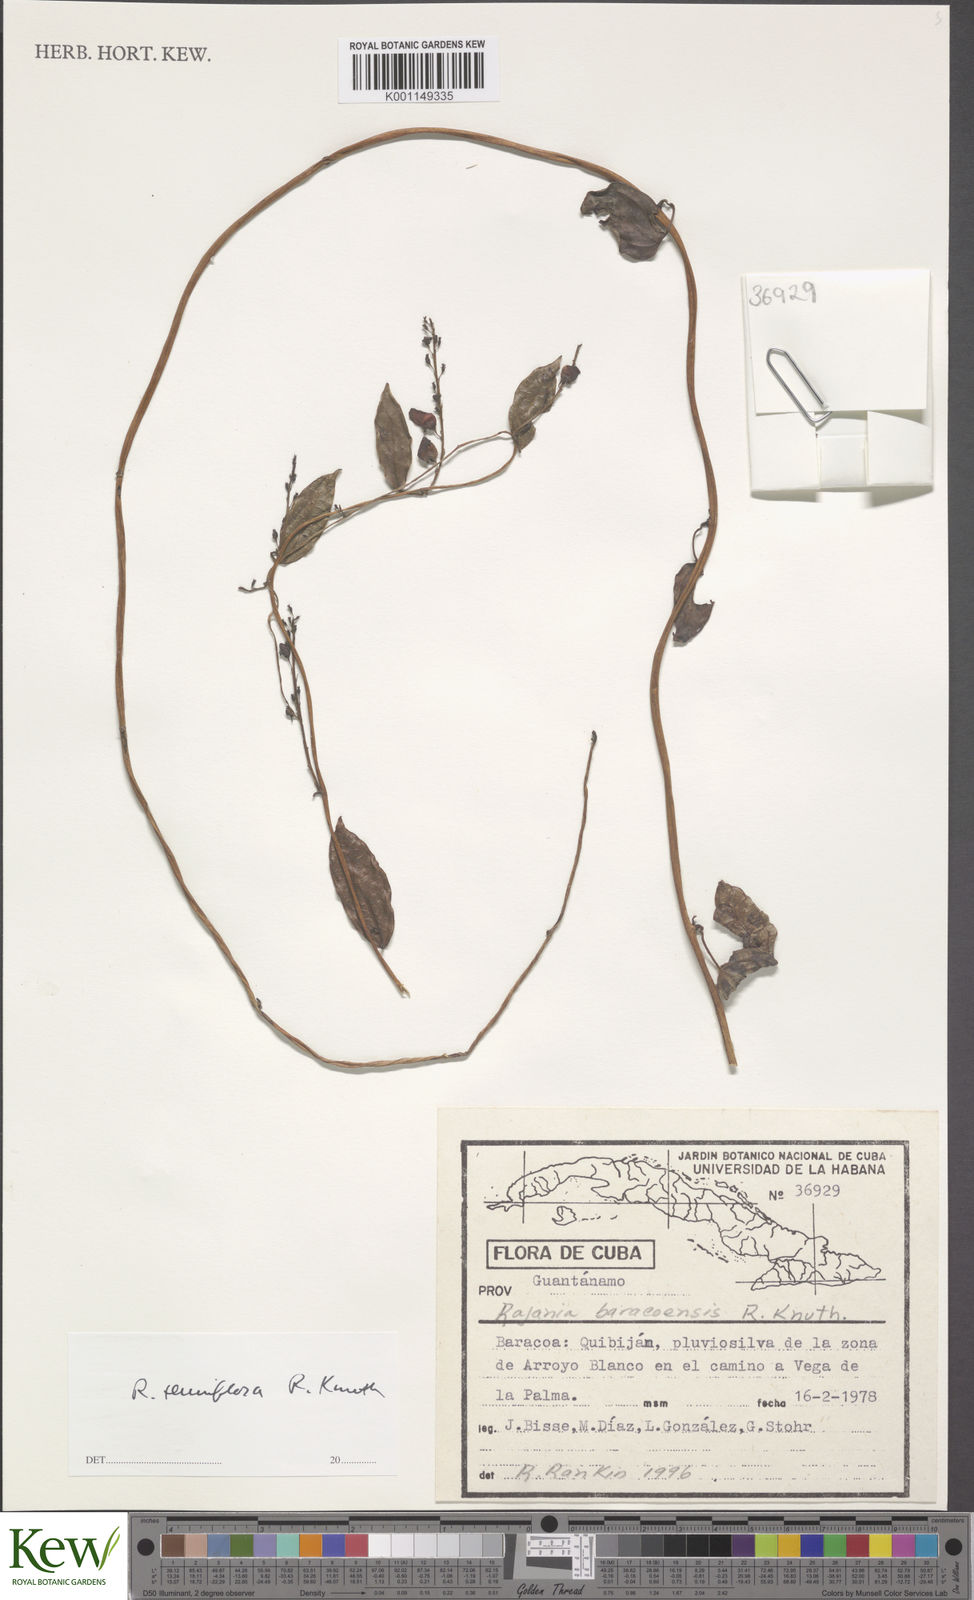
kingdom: Plantae
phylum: Tracheophyta
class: Liliopsida
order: Dioscoreales
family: Dioscoreaceae
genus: Dioscorea
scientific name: Dioscorea bulbifera
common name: Air yam
